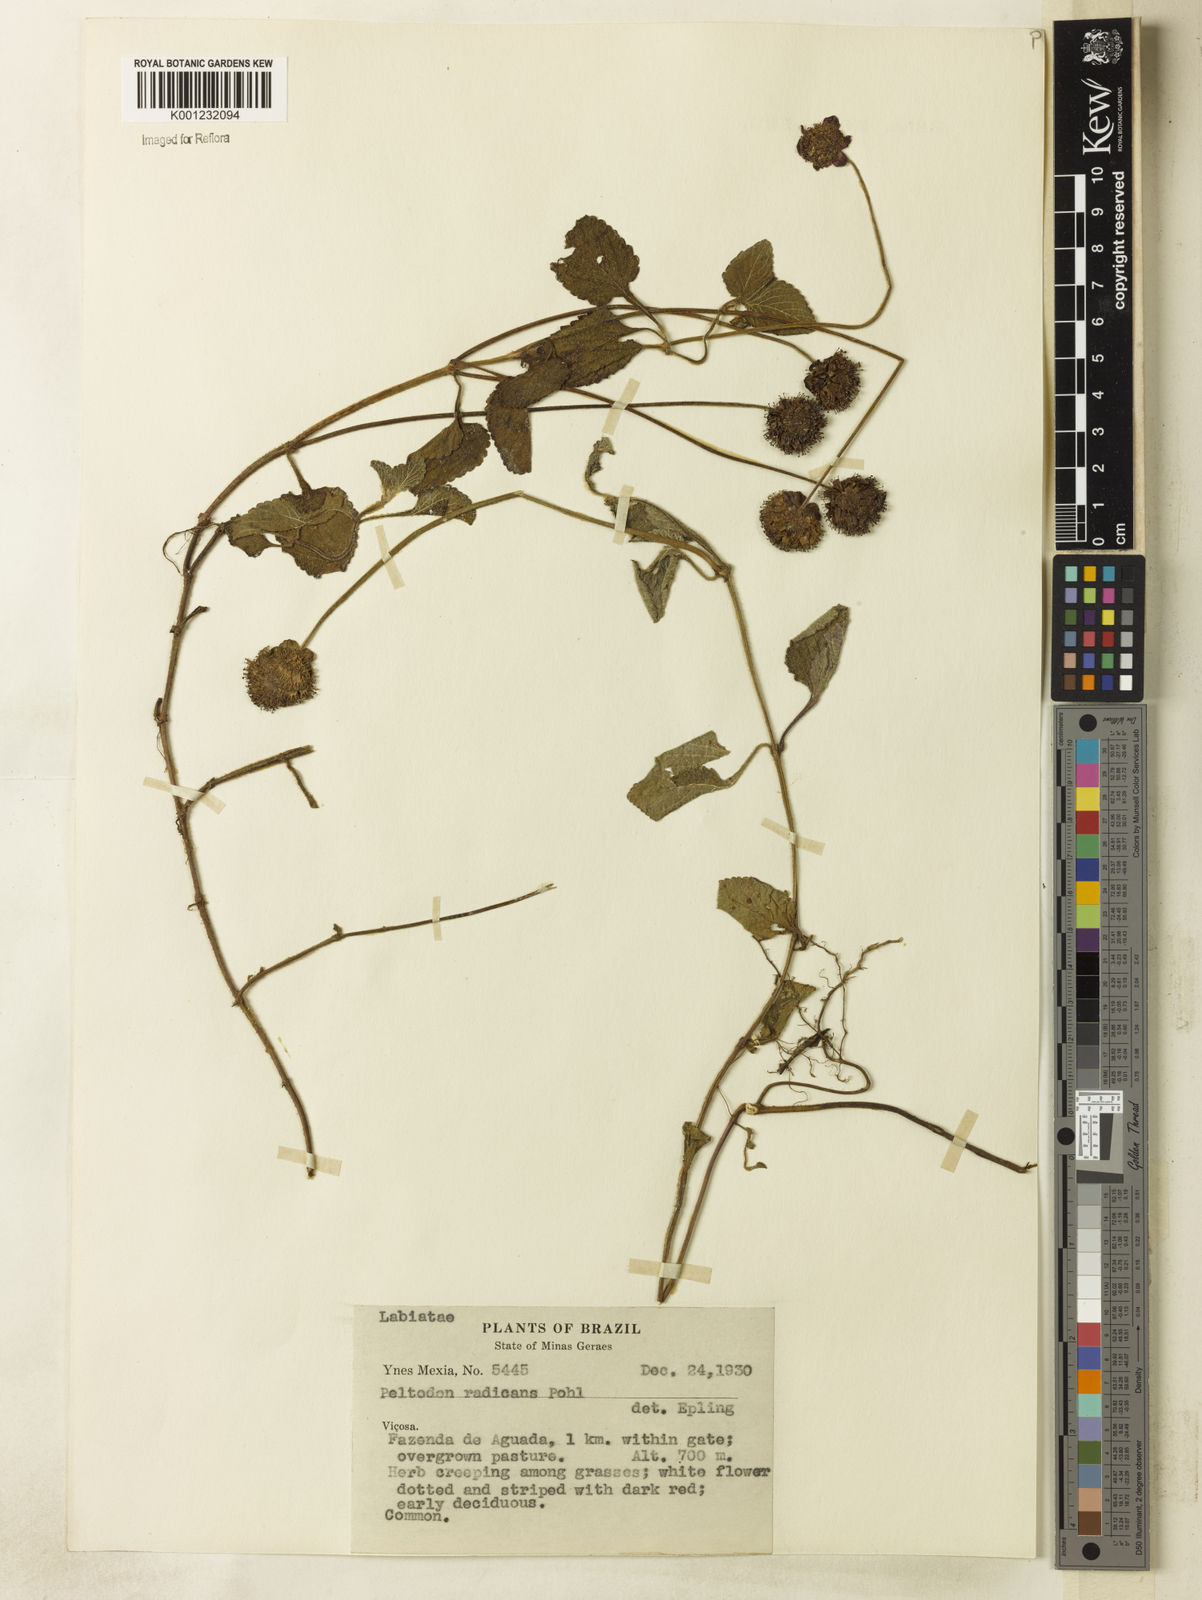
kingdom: Plantae
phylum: Tracheophyta
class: Magnoliopsida
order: Lamiales
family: Lamiaceae
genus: Hyptis
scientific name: Hyptis radicans
